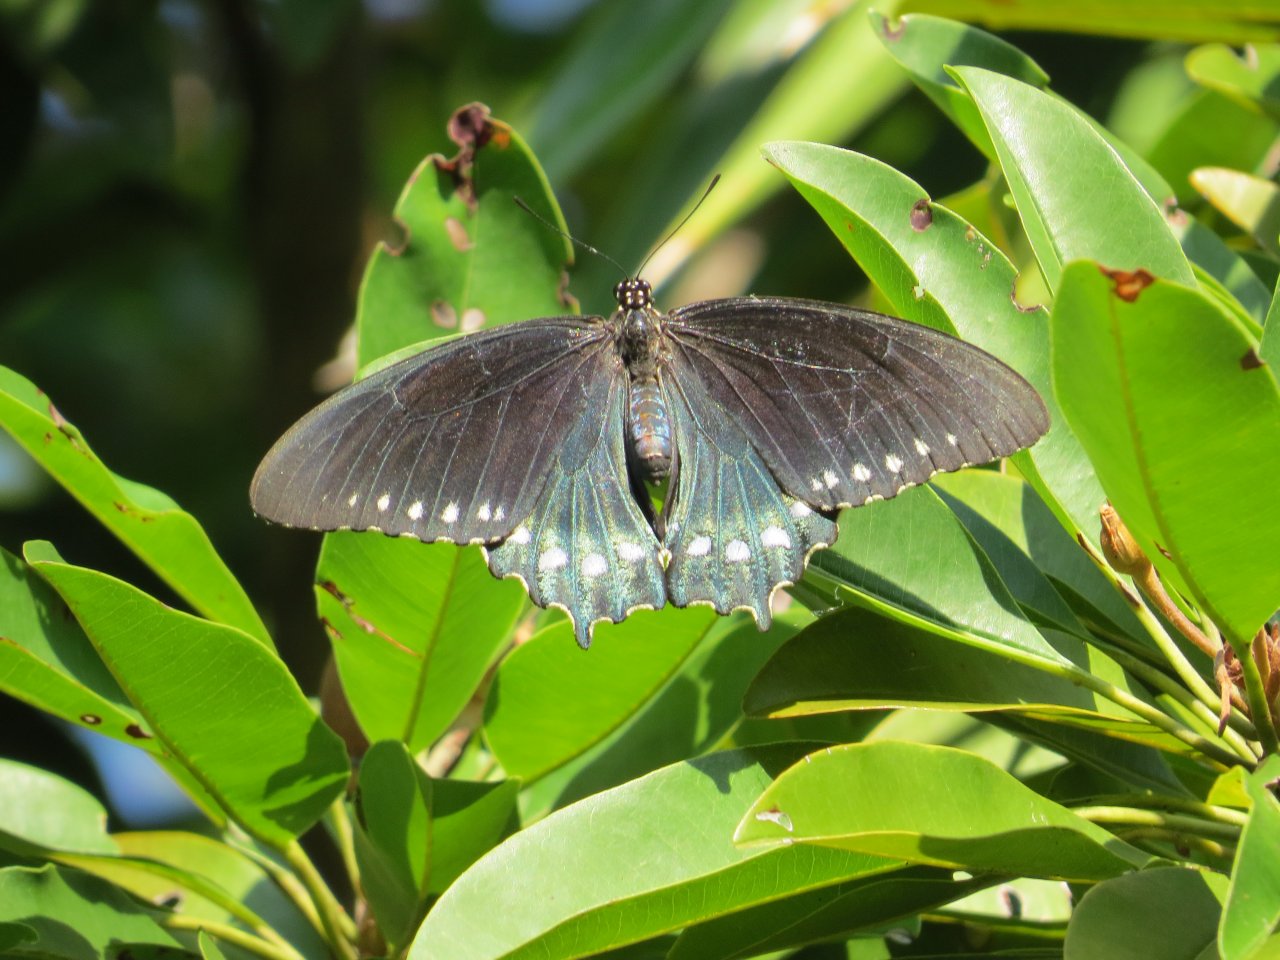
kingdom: Animalia
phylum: Arthropoda
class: Insecta
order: Lepidoptera
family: Papilionidae
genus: Battus
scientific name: Battus philenor
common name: Pipevine Swallowtail
